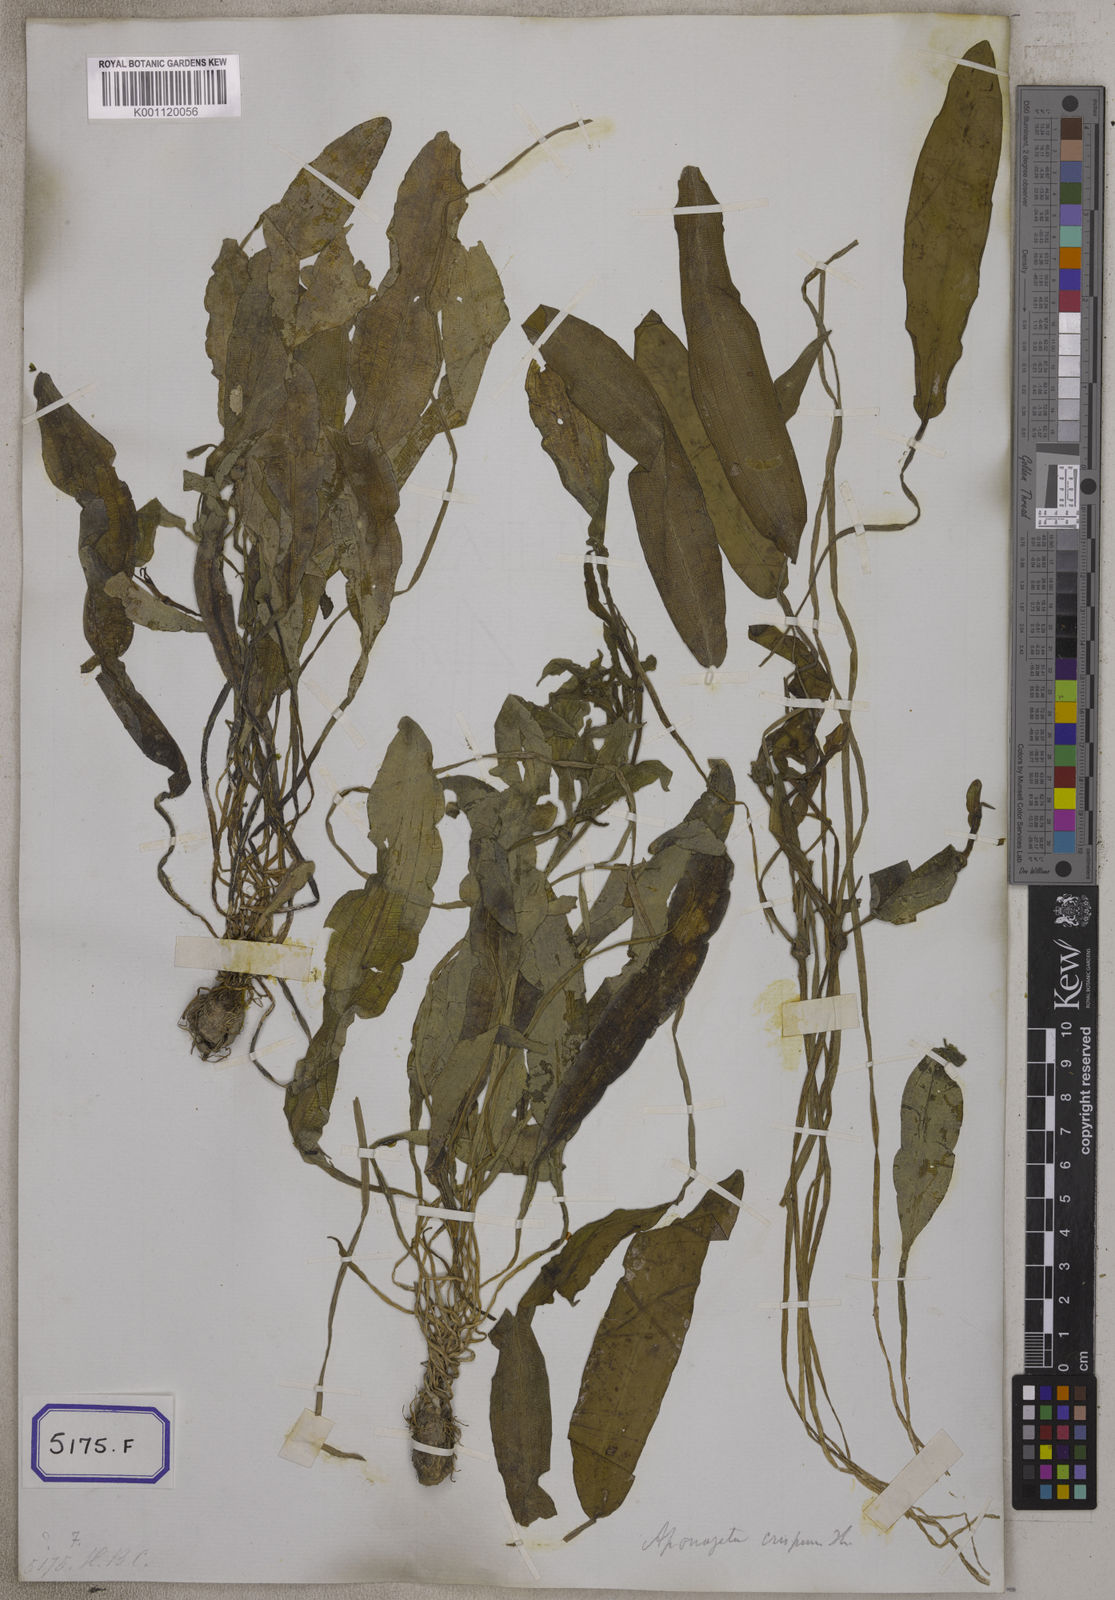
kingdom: Plantae
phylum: Tracheophyta
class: Liliopsida
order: Alismatales
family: Potamogetonaceae
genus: Potamogeton
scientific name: Potamogeton nodosus
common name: Loddon pondweed
